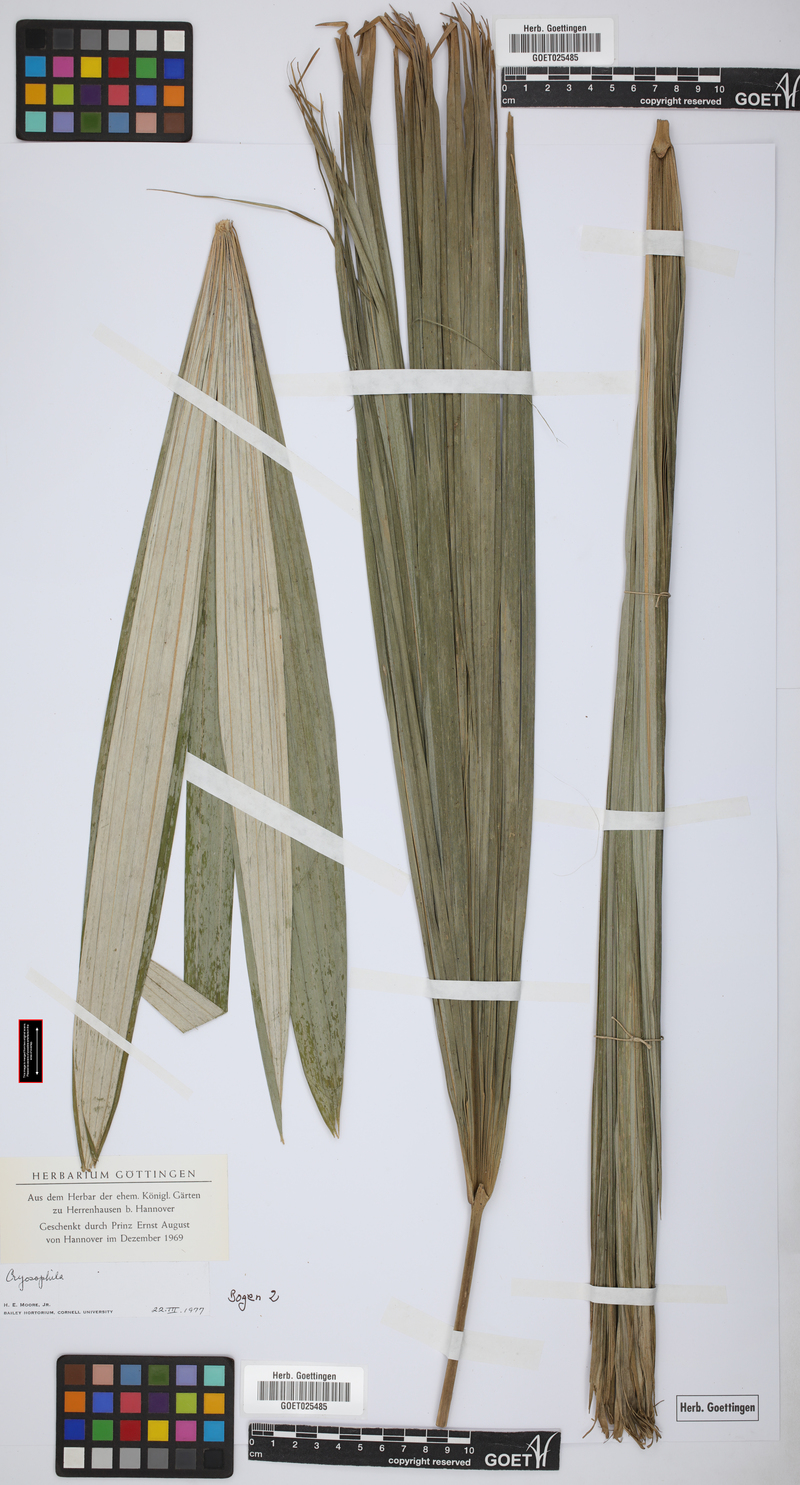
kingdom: Plantae
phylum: Tracheophyta
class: Liliopsida
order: Arecales
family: Arecaceae
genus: Cryosophila
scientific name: Cryosophila
